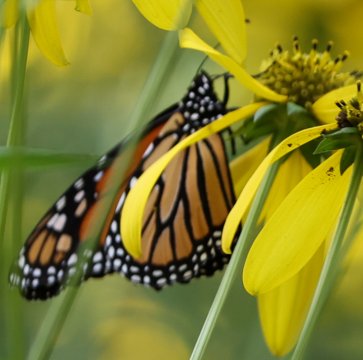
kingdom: Animalia
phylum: Arthropoda
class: Insecta
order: Lepidoptera
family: Nymphalidae
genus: Danaus
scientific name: Danaus plexippus
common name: Monarch
